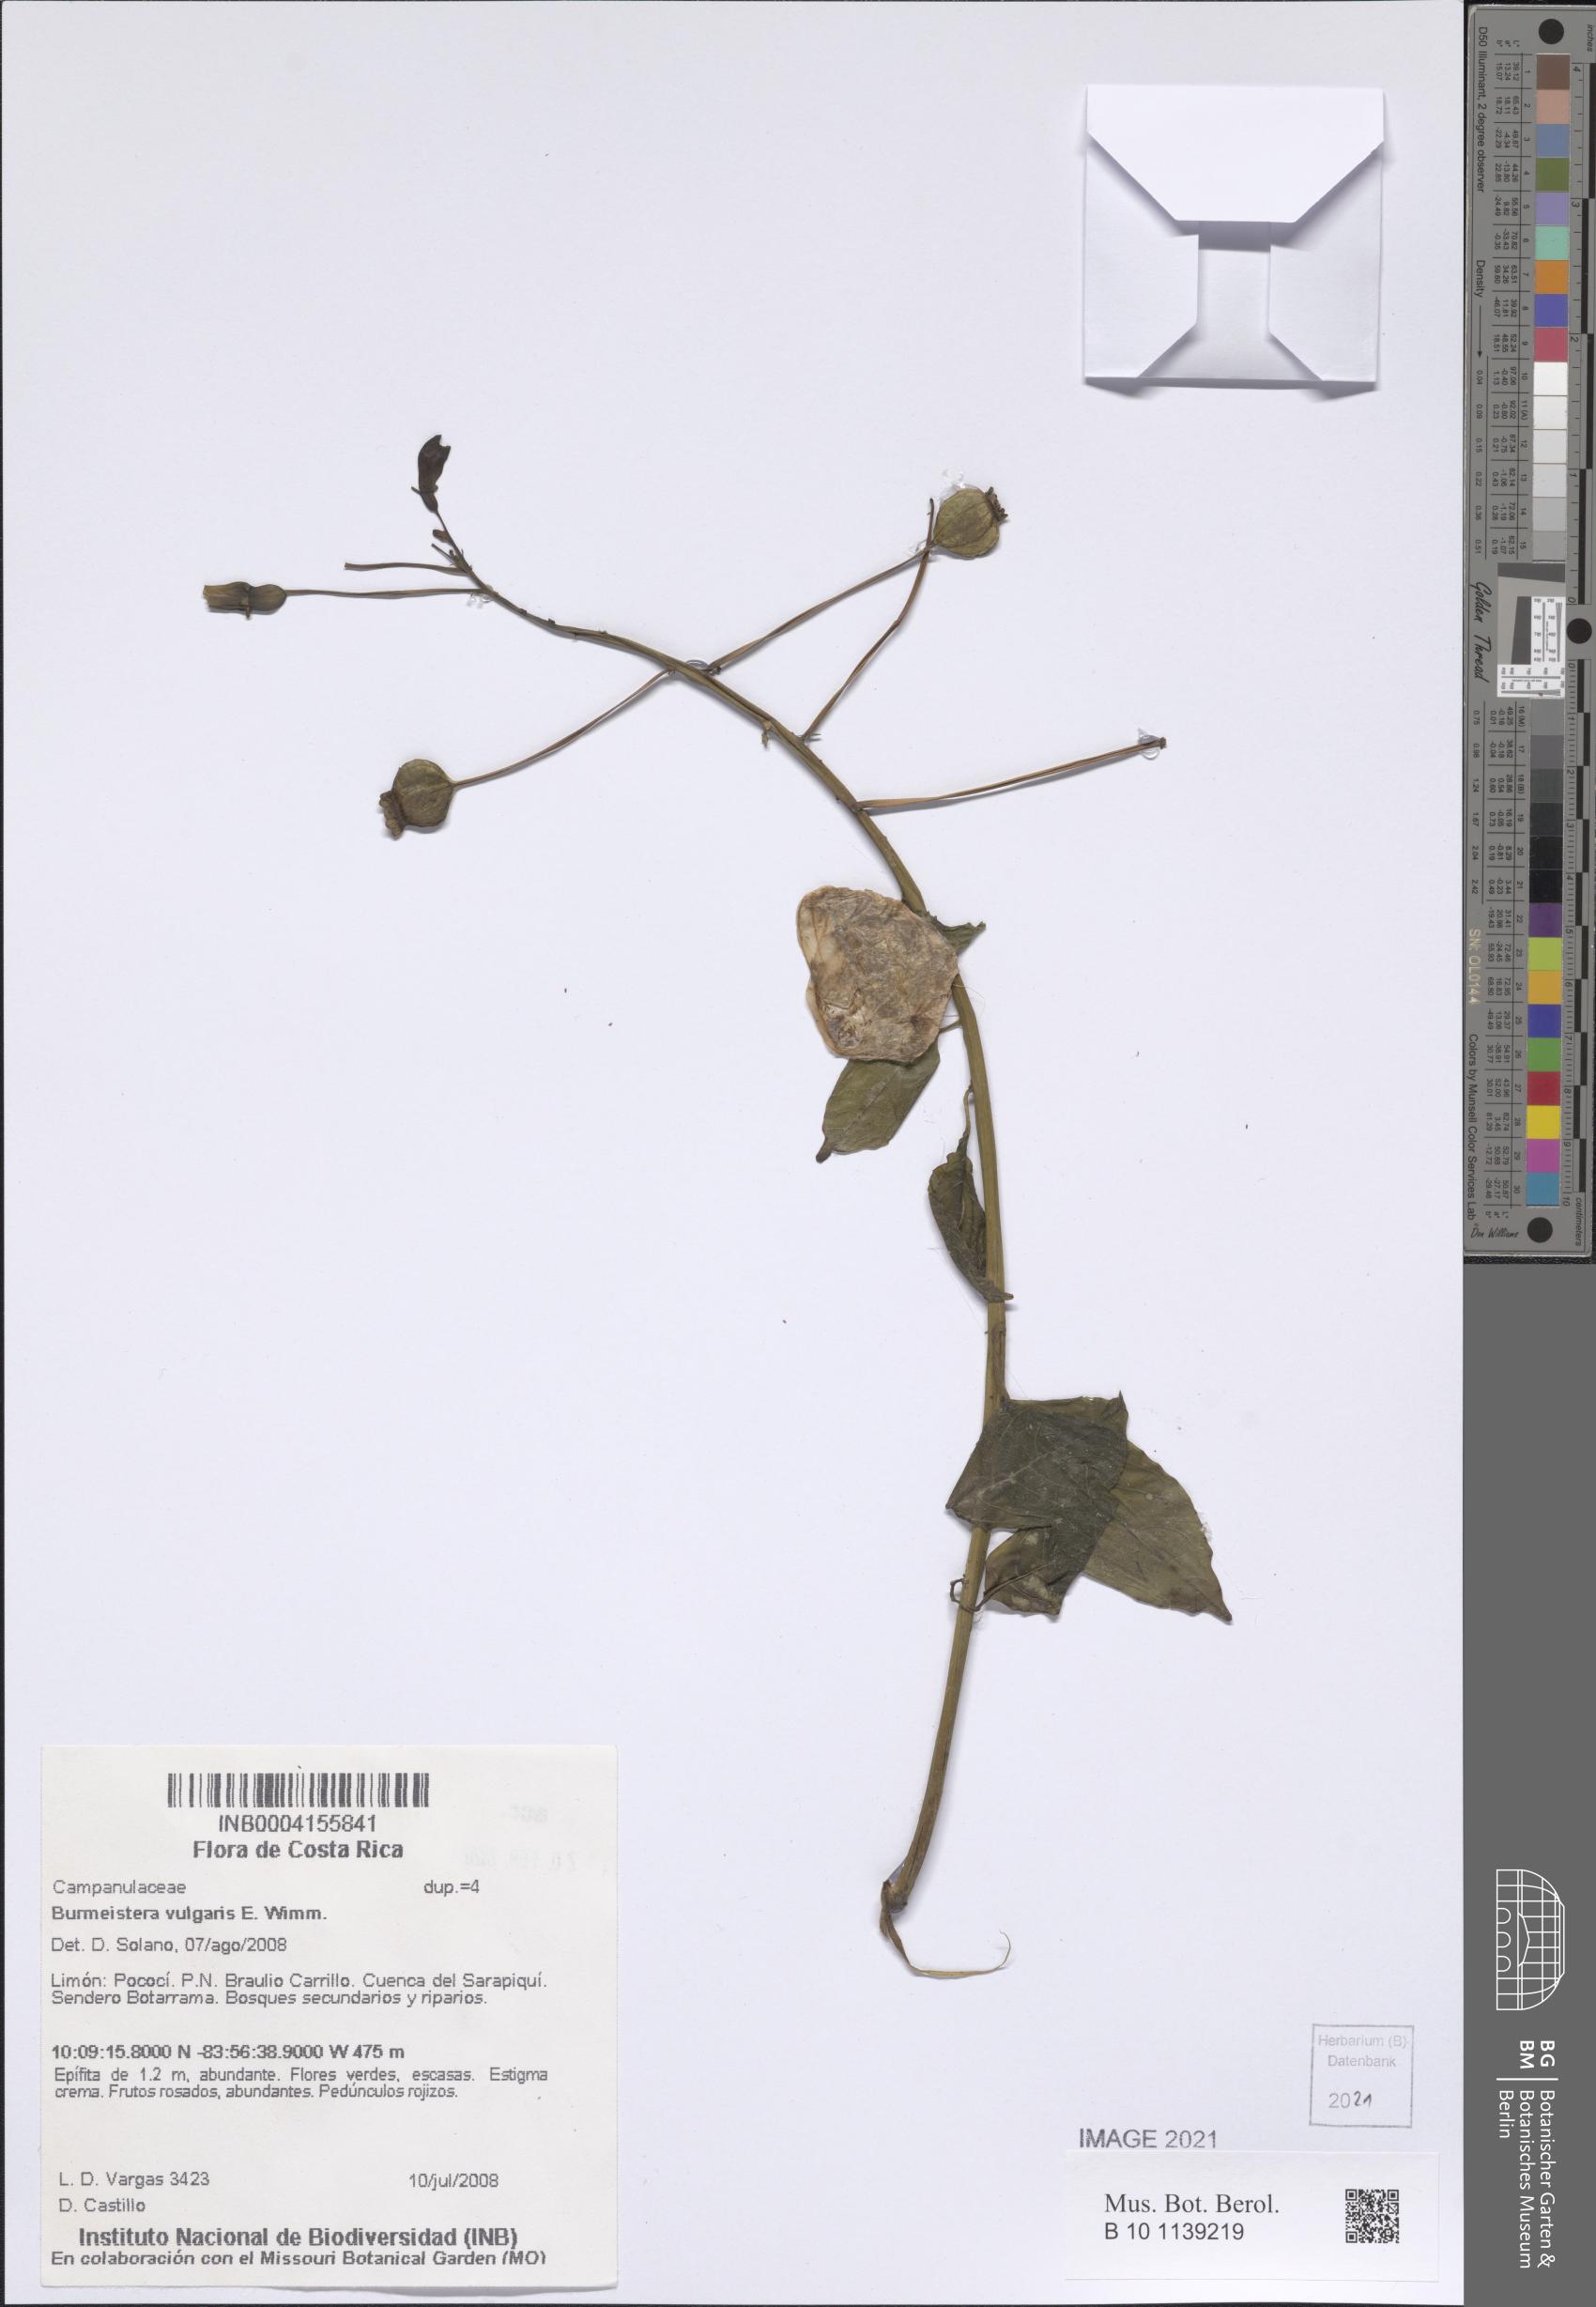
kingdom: Plantae
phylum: Tracheophyta
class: Magnoliopsida
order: Asterales
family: Campanulaceae
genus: Burmeistera
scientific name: Burmeistera cyclostigmata
